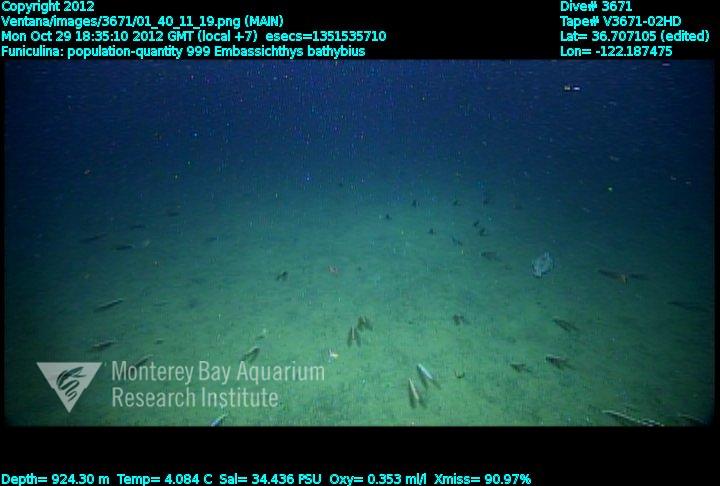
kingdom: Animalia
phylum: Cnidaria
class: Anthozoa
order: Scleralcyonacea
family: Funiculinidae
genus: Funiculina
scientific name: Funiculina
